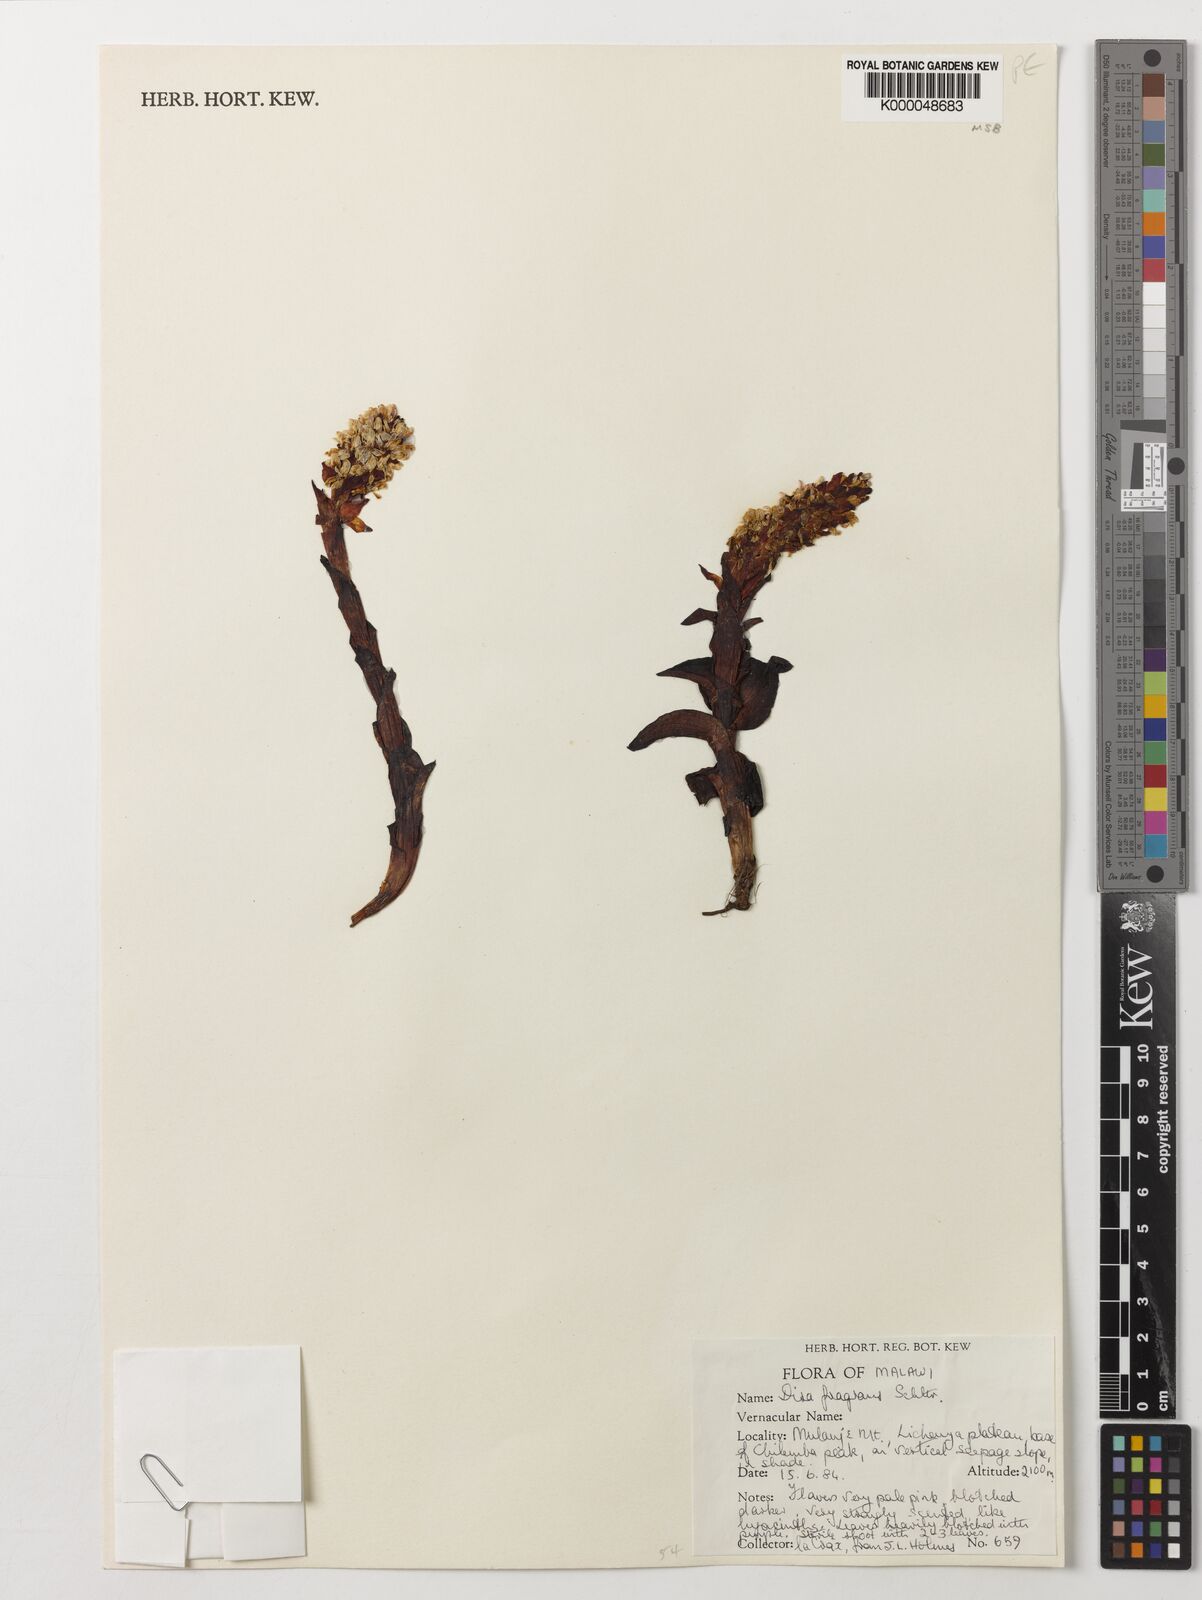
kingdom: Plantae
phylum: Tracheophyta
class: Liliopsida
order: Asparagales
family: Orchidaceae
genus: Disa
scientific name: Disa fragrans
